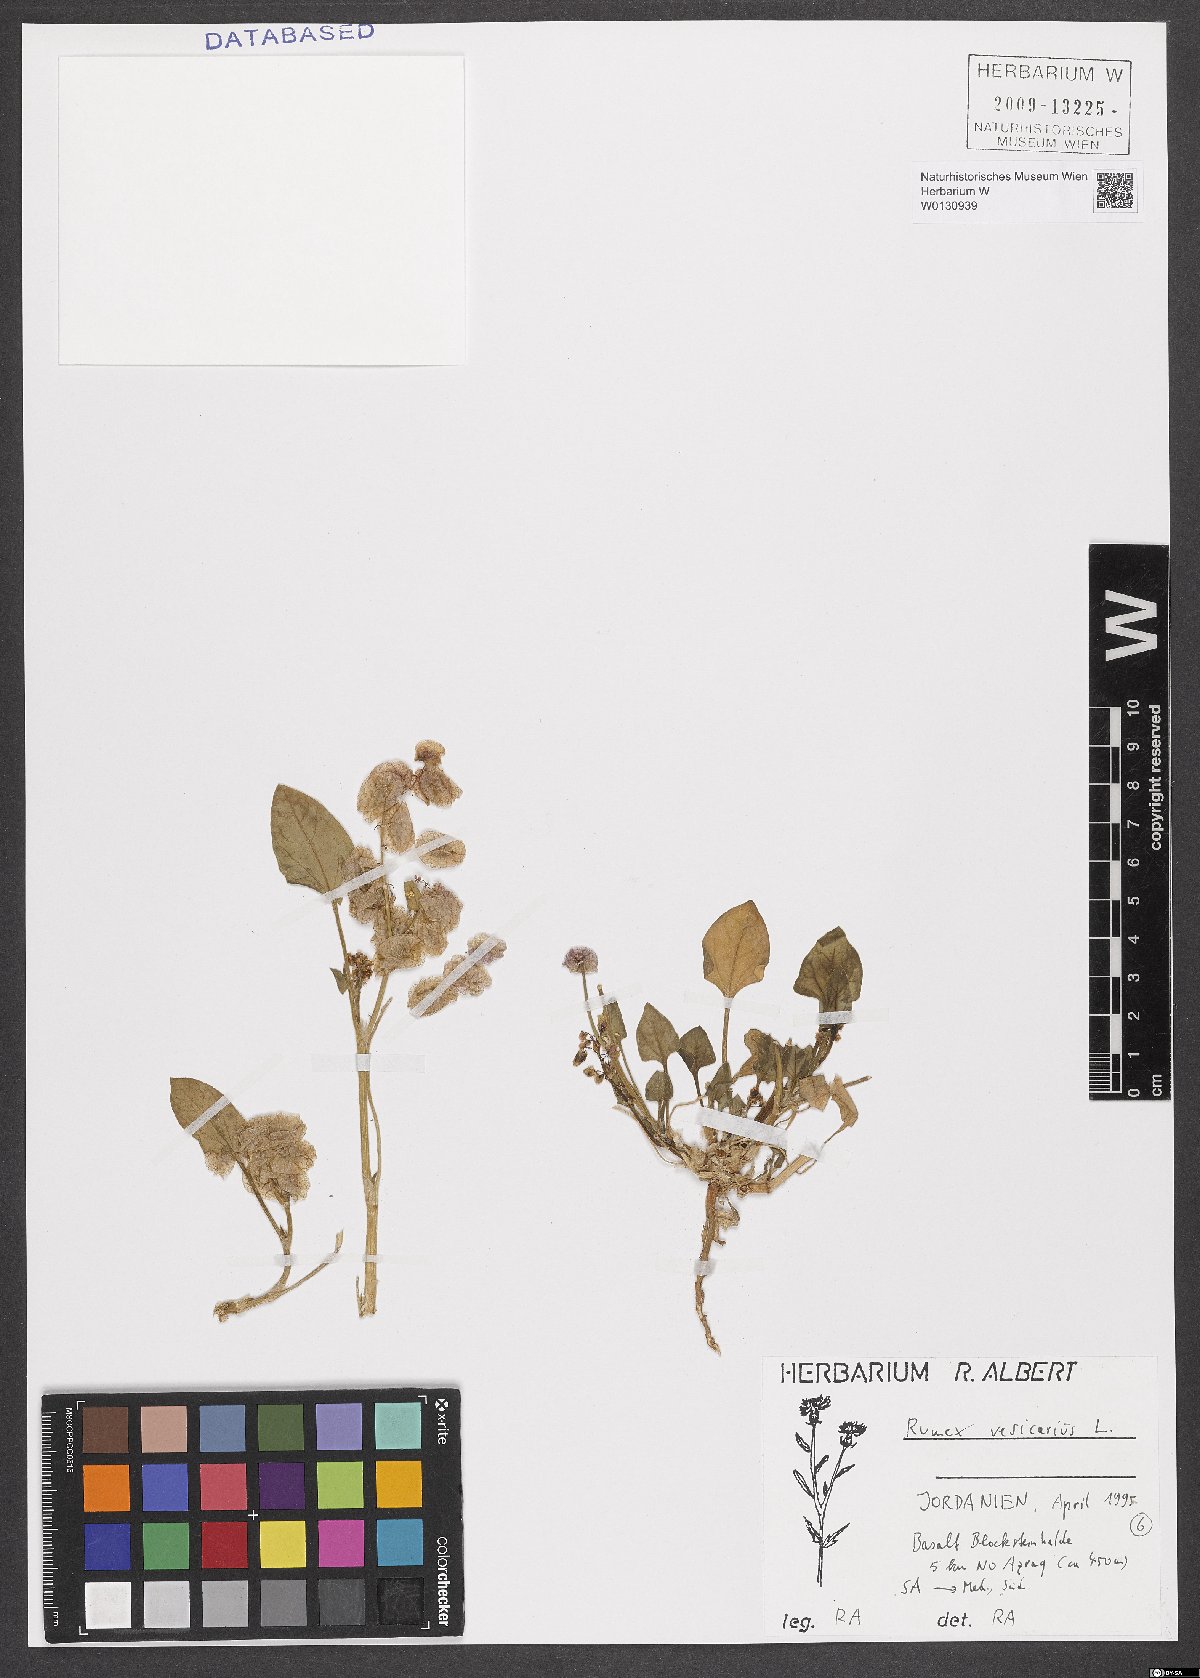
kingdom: Plantae
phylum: Tracheophyta
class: Magnoliopsida
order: Caryophyllales
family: Polygonaceae
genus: Rumex
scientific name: Rumex vesicarius
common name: Bladder dock
